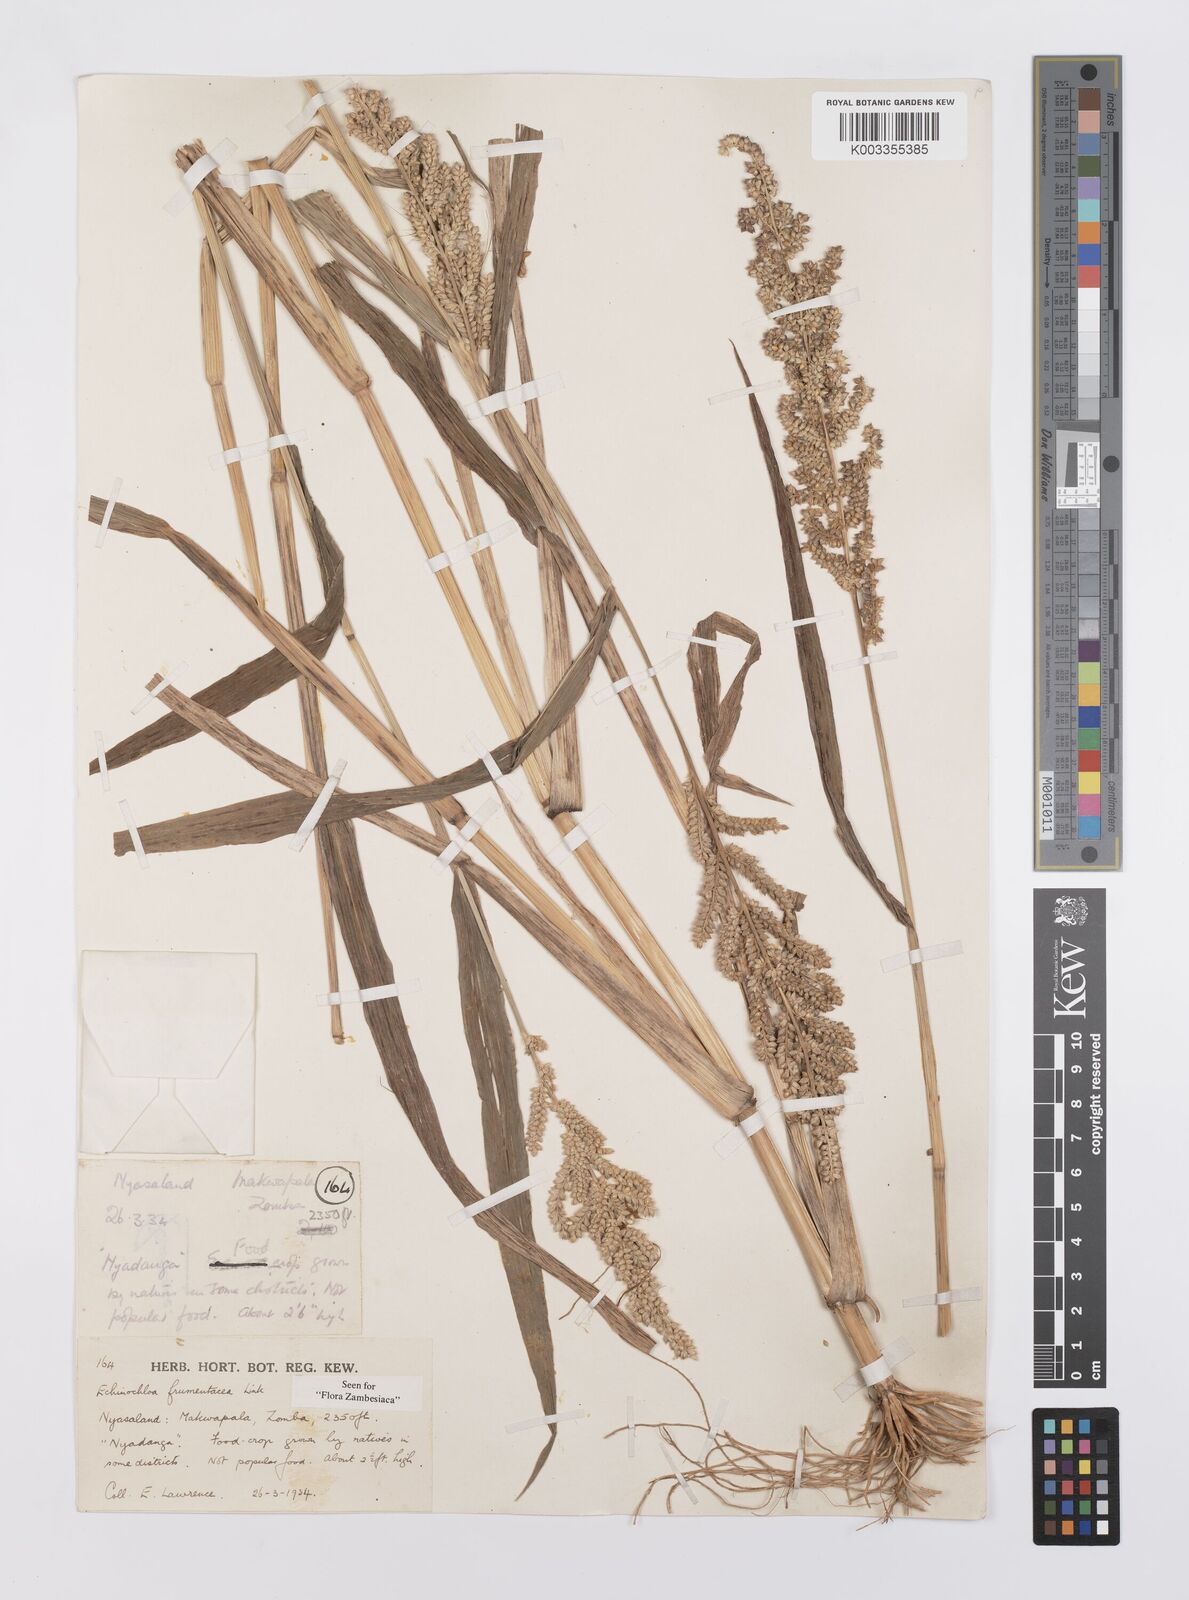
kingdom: Plantae
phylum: Tracheophyta
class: Liliopsida
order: Poales
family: Poaceae
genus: Echinochloa
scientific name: Echinochloa frumentacea
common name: Billion-dollar grass
